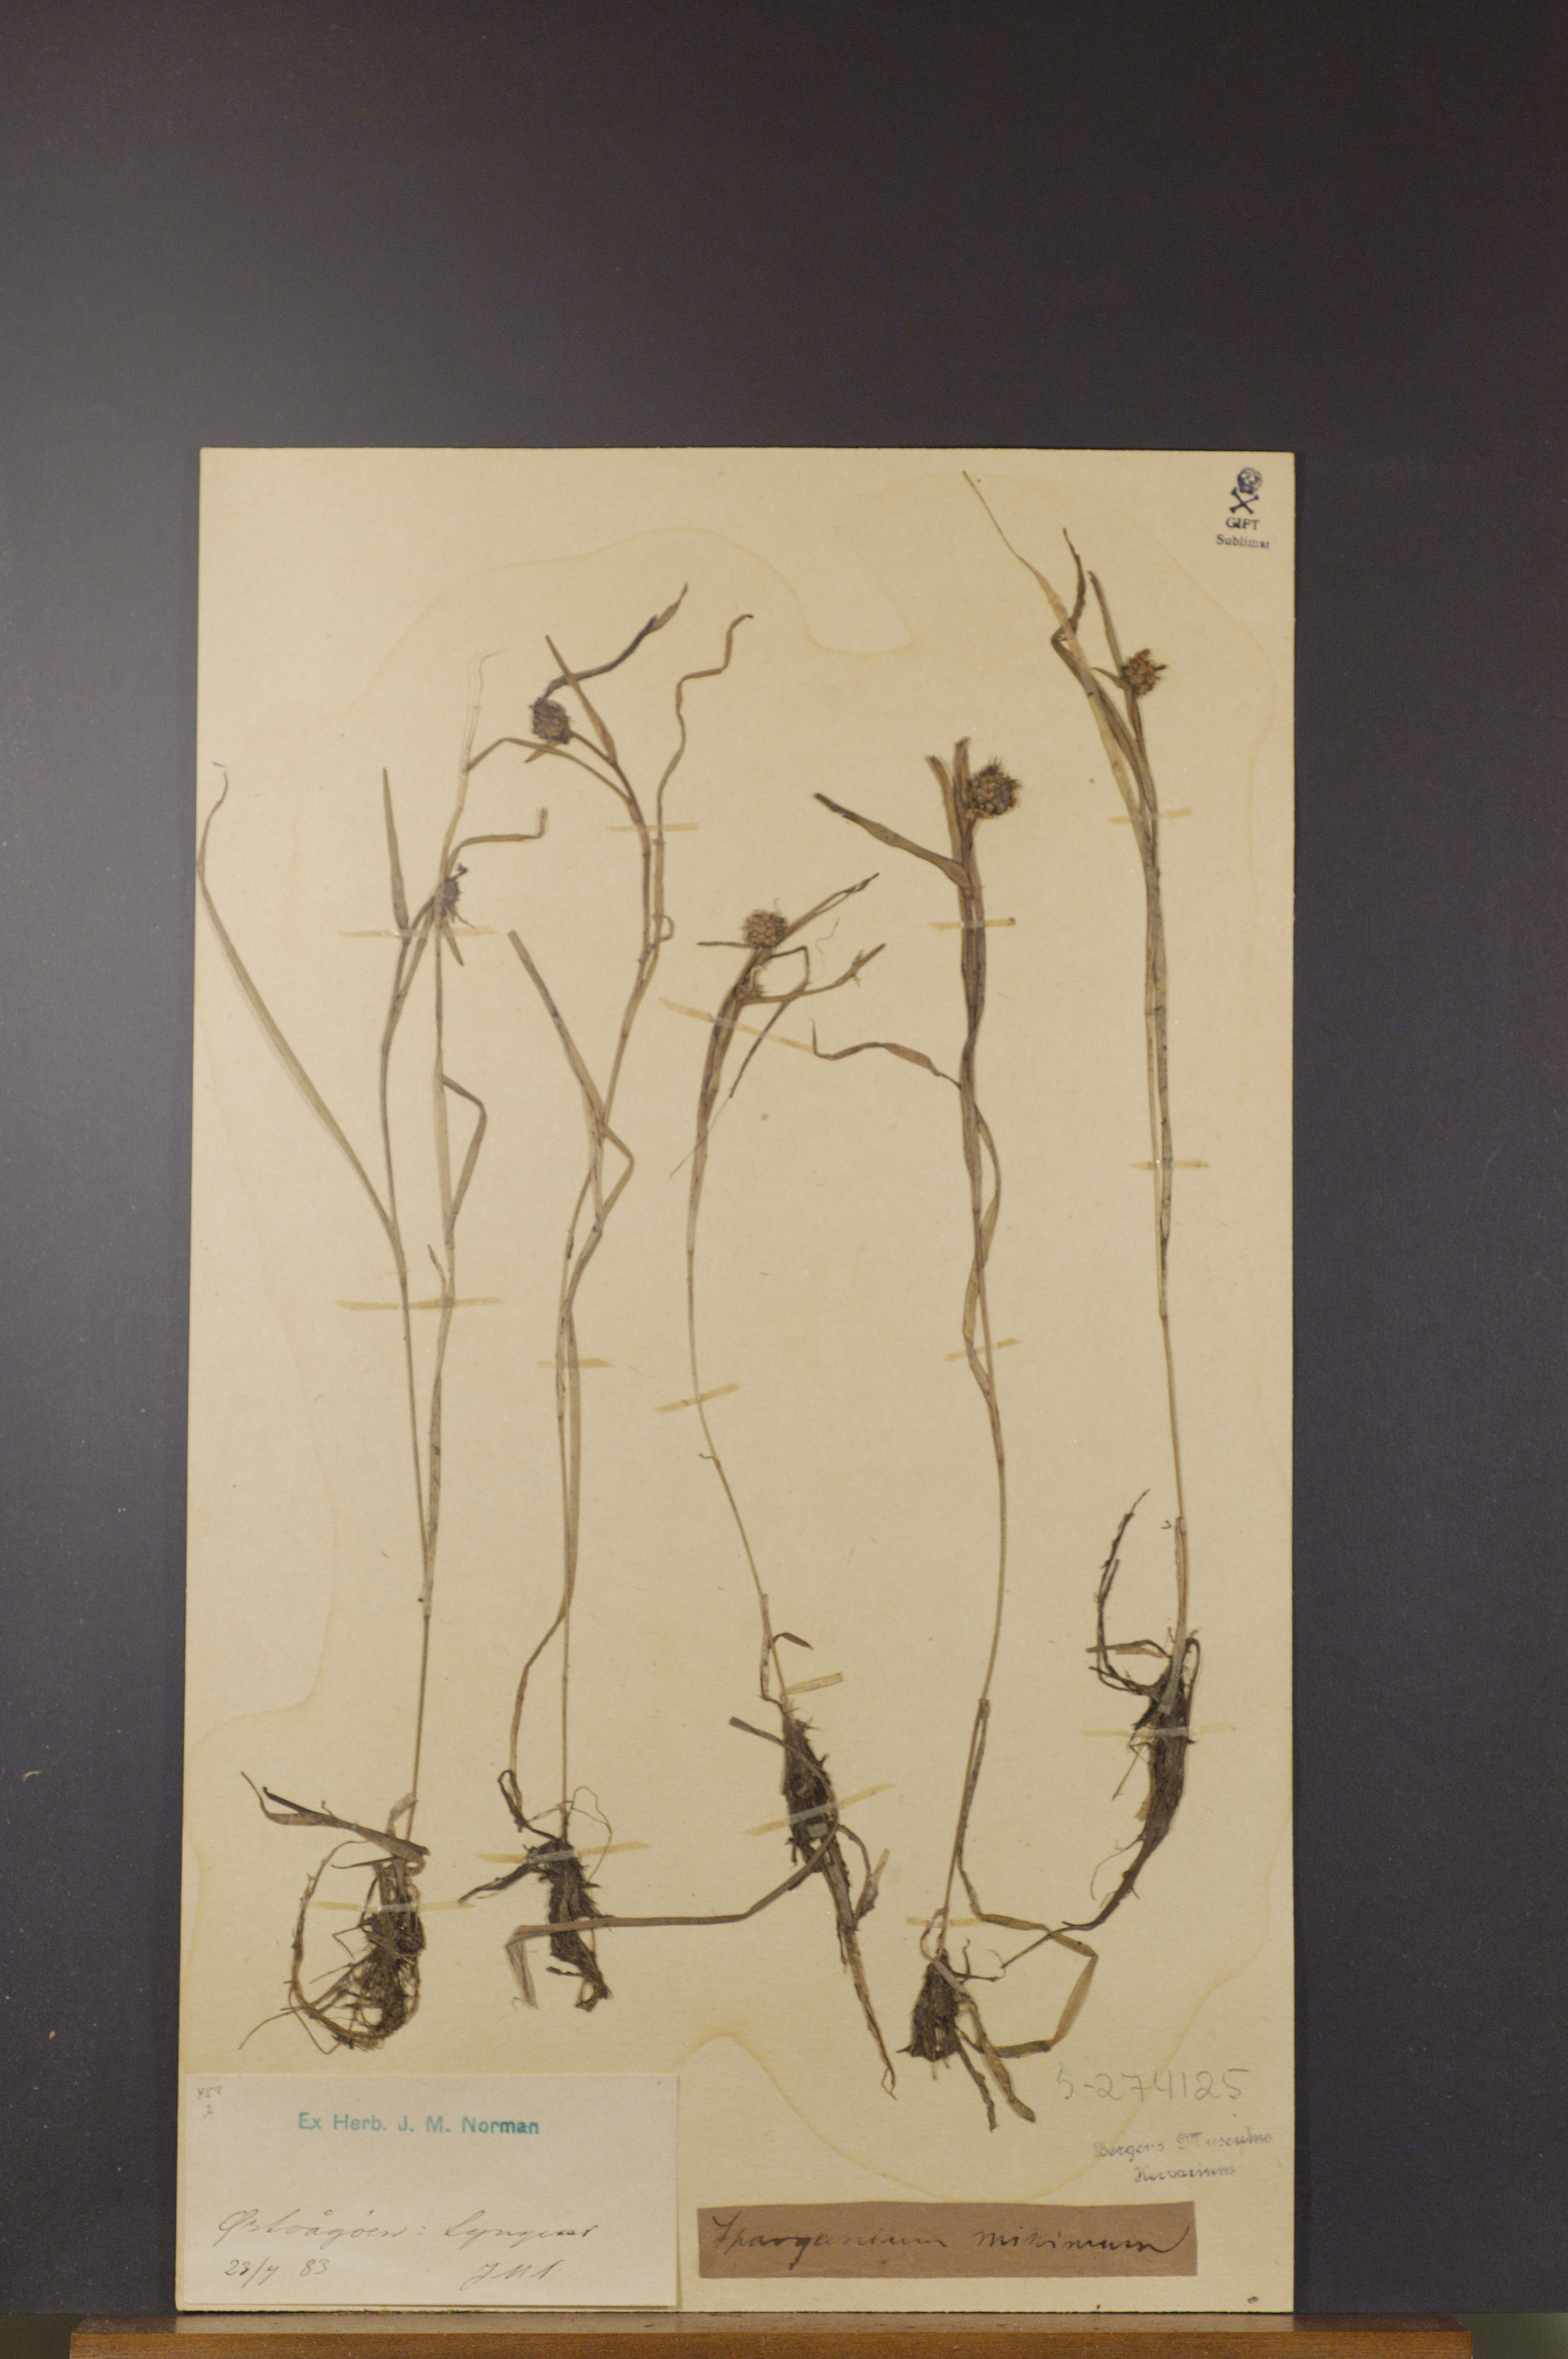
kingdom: Plantae
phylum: Tracheophyta
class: Liliopsida
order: Poales
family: Typhaceae
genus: Sparganium
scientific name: Sparganium natans
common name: Least bur-reed
